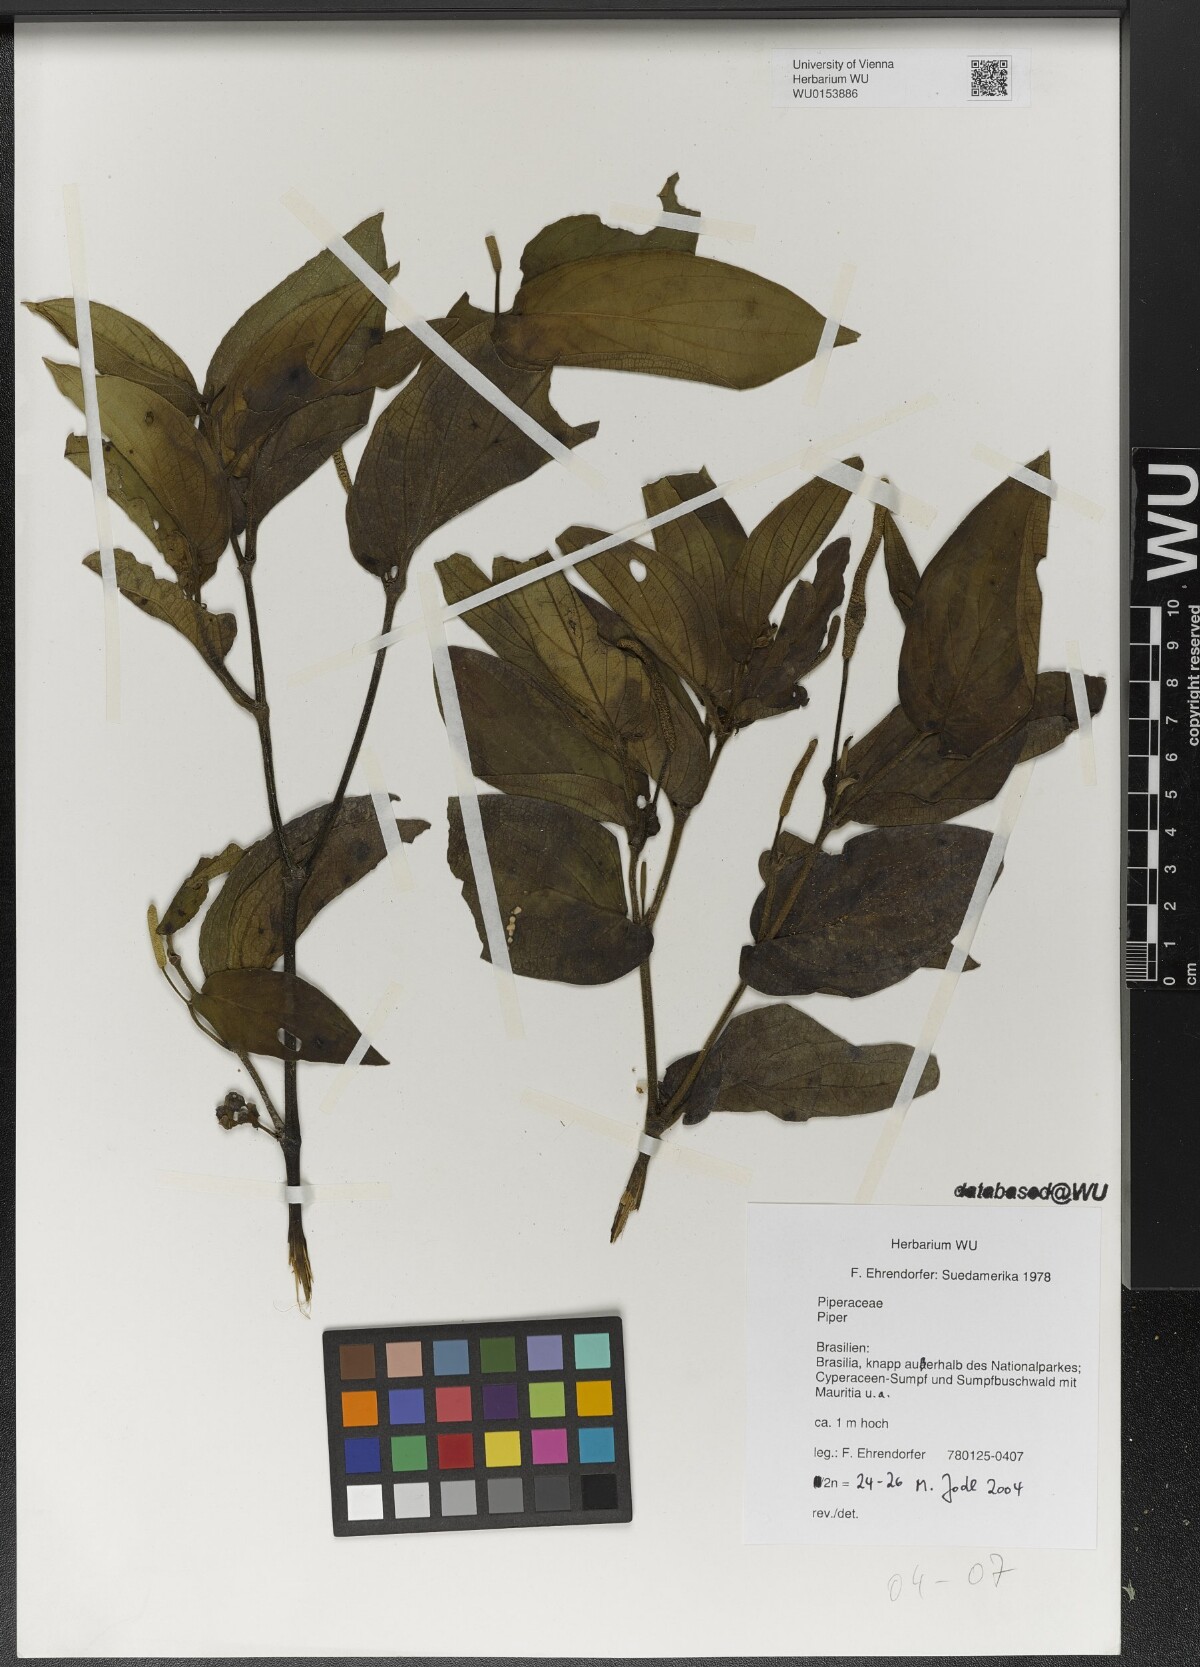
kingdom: Plantae
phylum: Tracheophyta
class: Magnoliopsida
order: Piperales
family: Piperaceae
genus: Piper
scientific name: Piper
